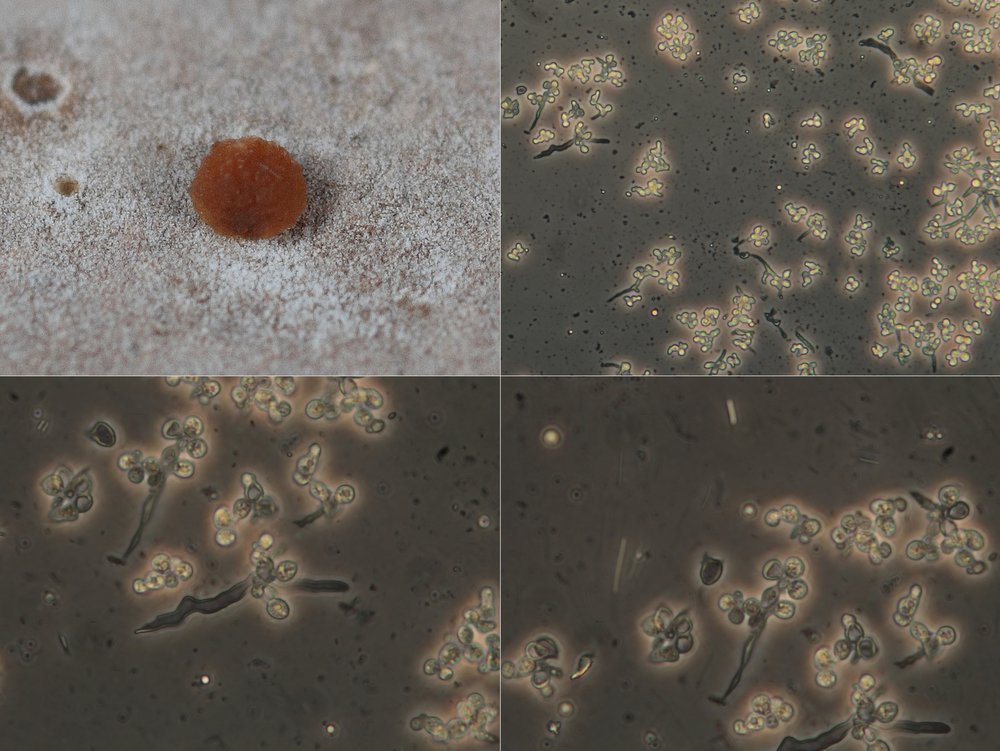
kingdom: Fungi
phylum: Basidiomycota
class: Tremellomycetes
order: Tremellales
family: Tremellaceae
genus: Tremella
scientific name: Tremella versicolor
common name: voksskind-bævresvamp
